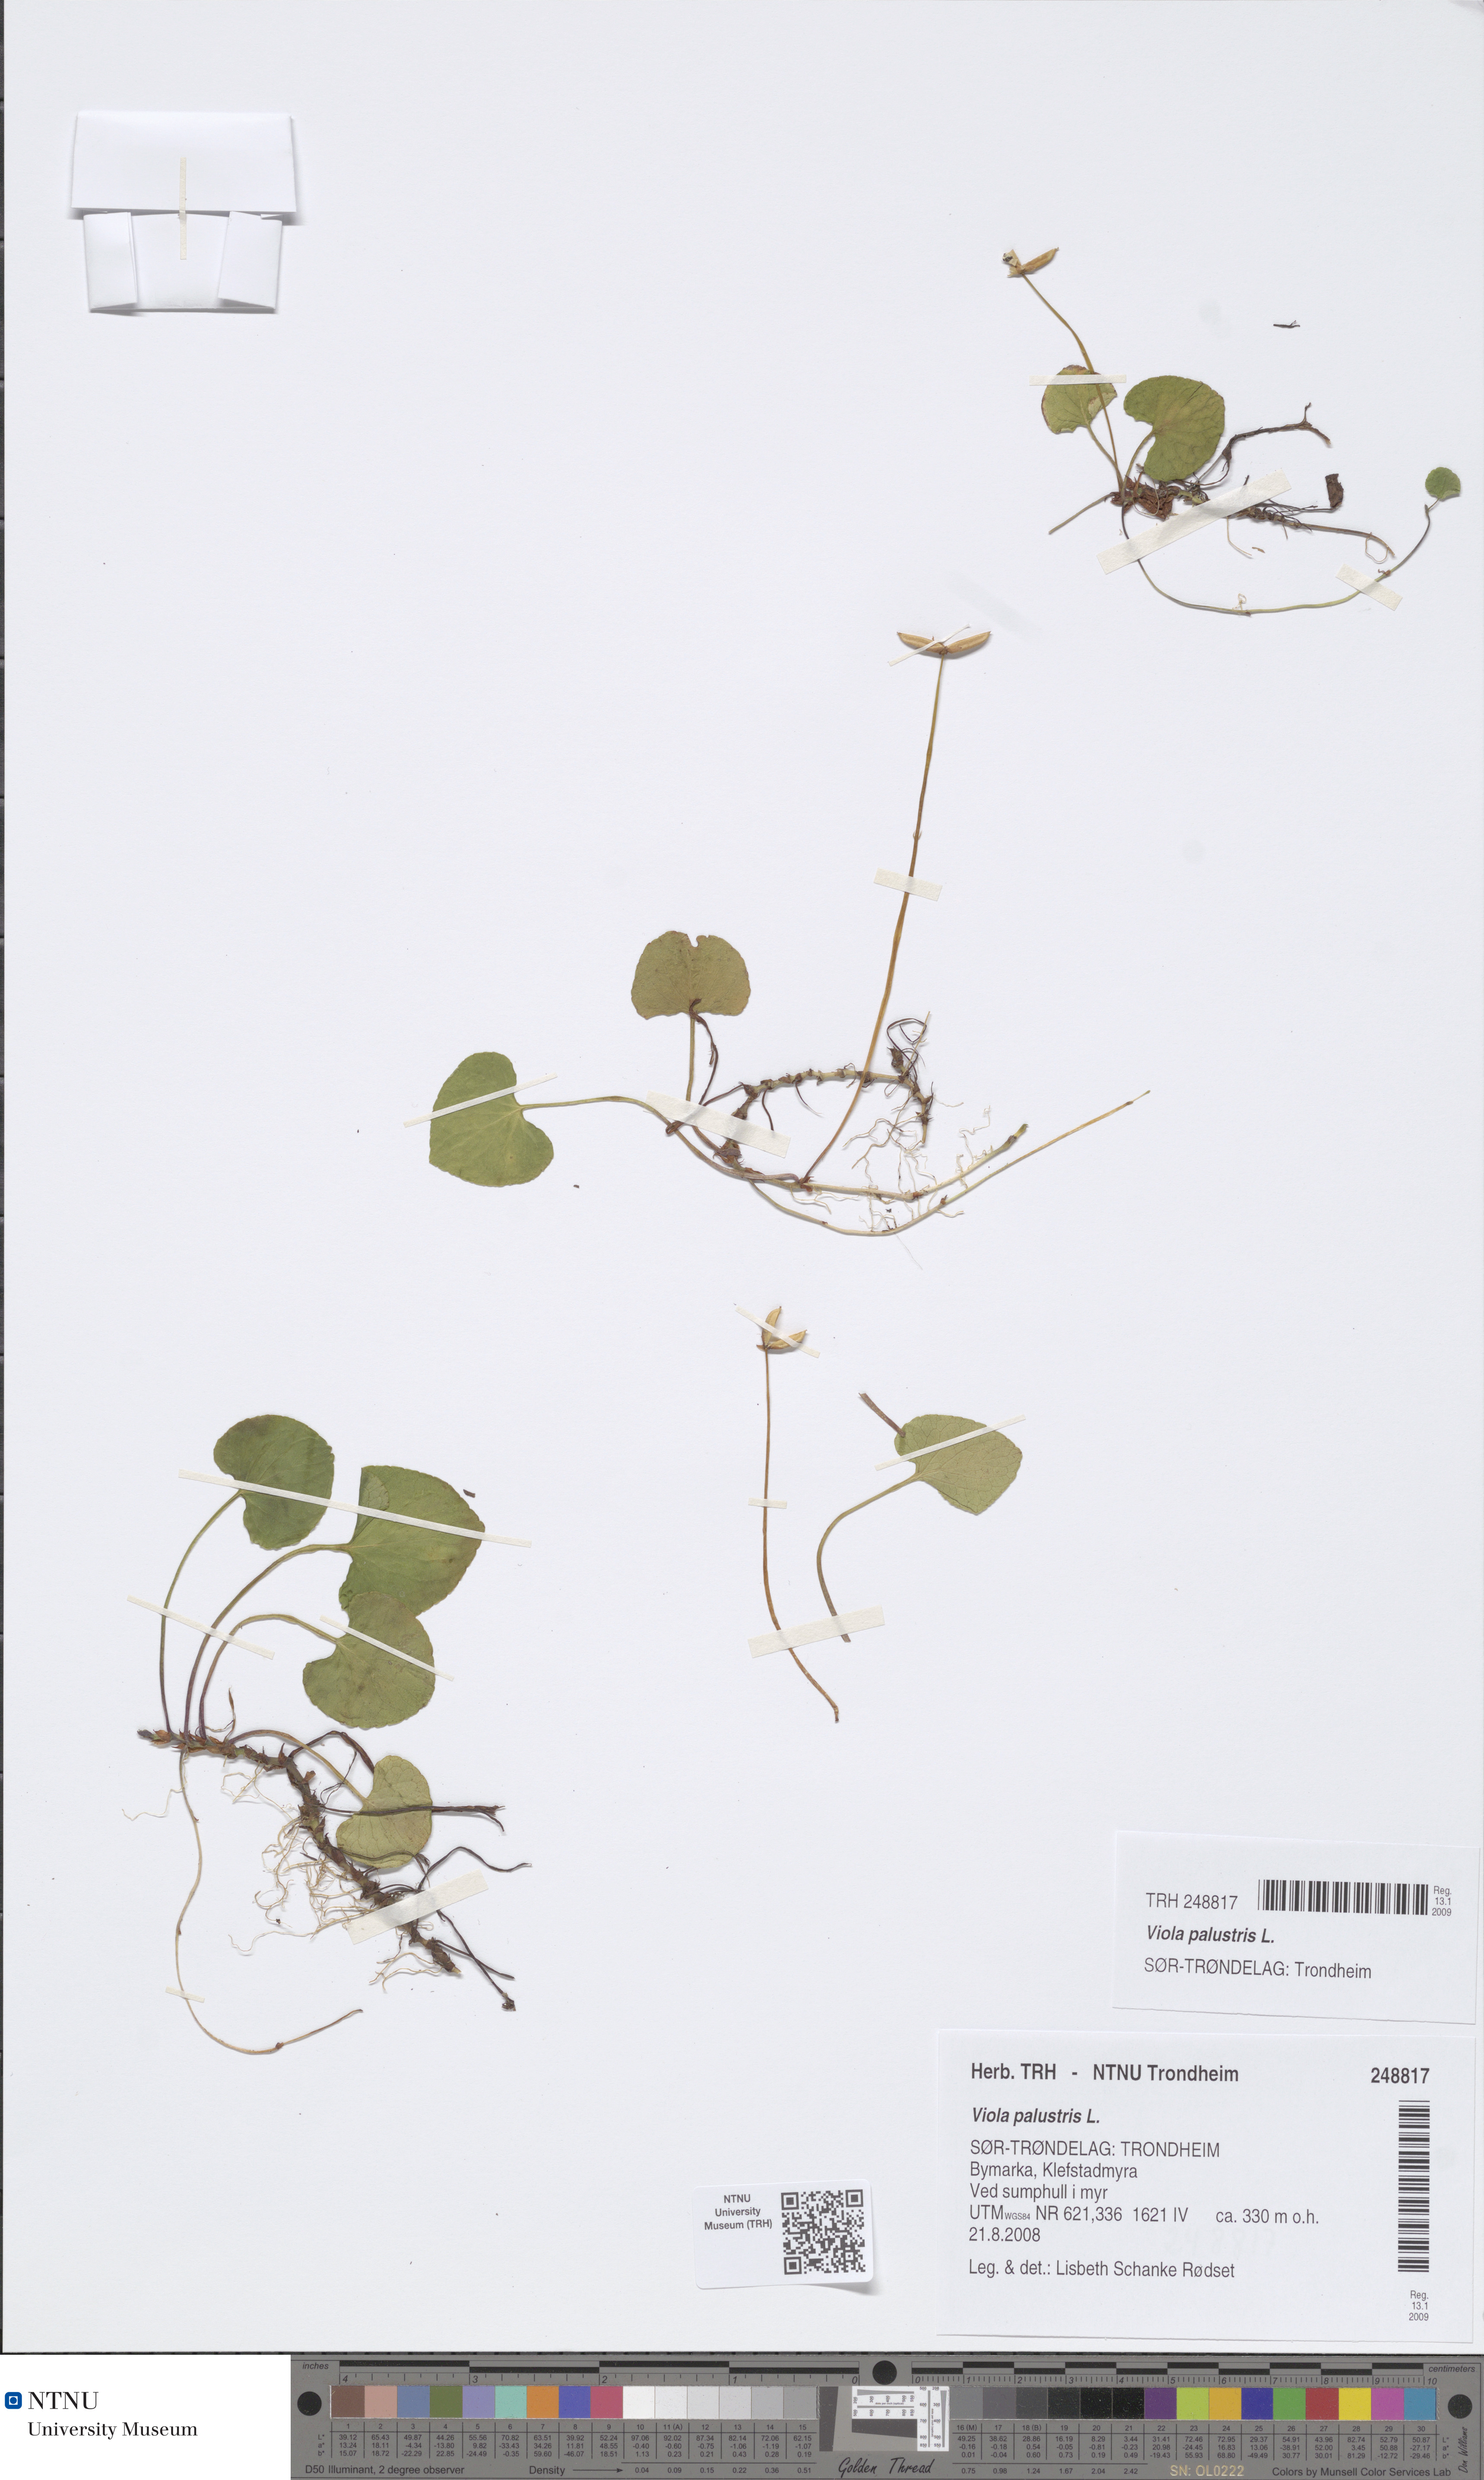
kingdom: Plantae
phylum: Tracheophyta
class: Magnoliopsida
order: Malpighiales
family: Violaceae
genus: Viola
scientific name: Viola palustris
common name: Marsh violet
